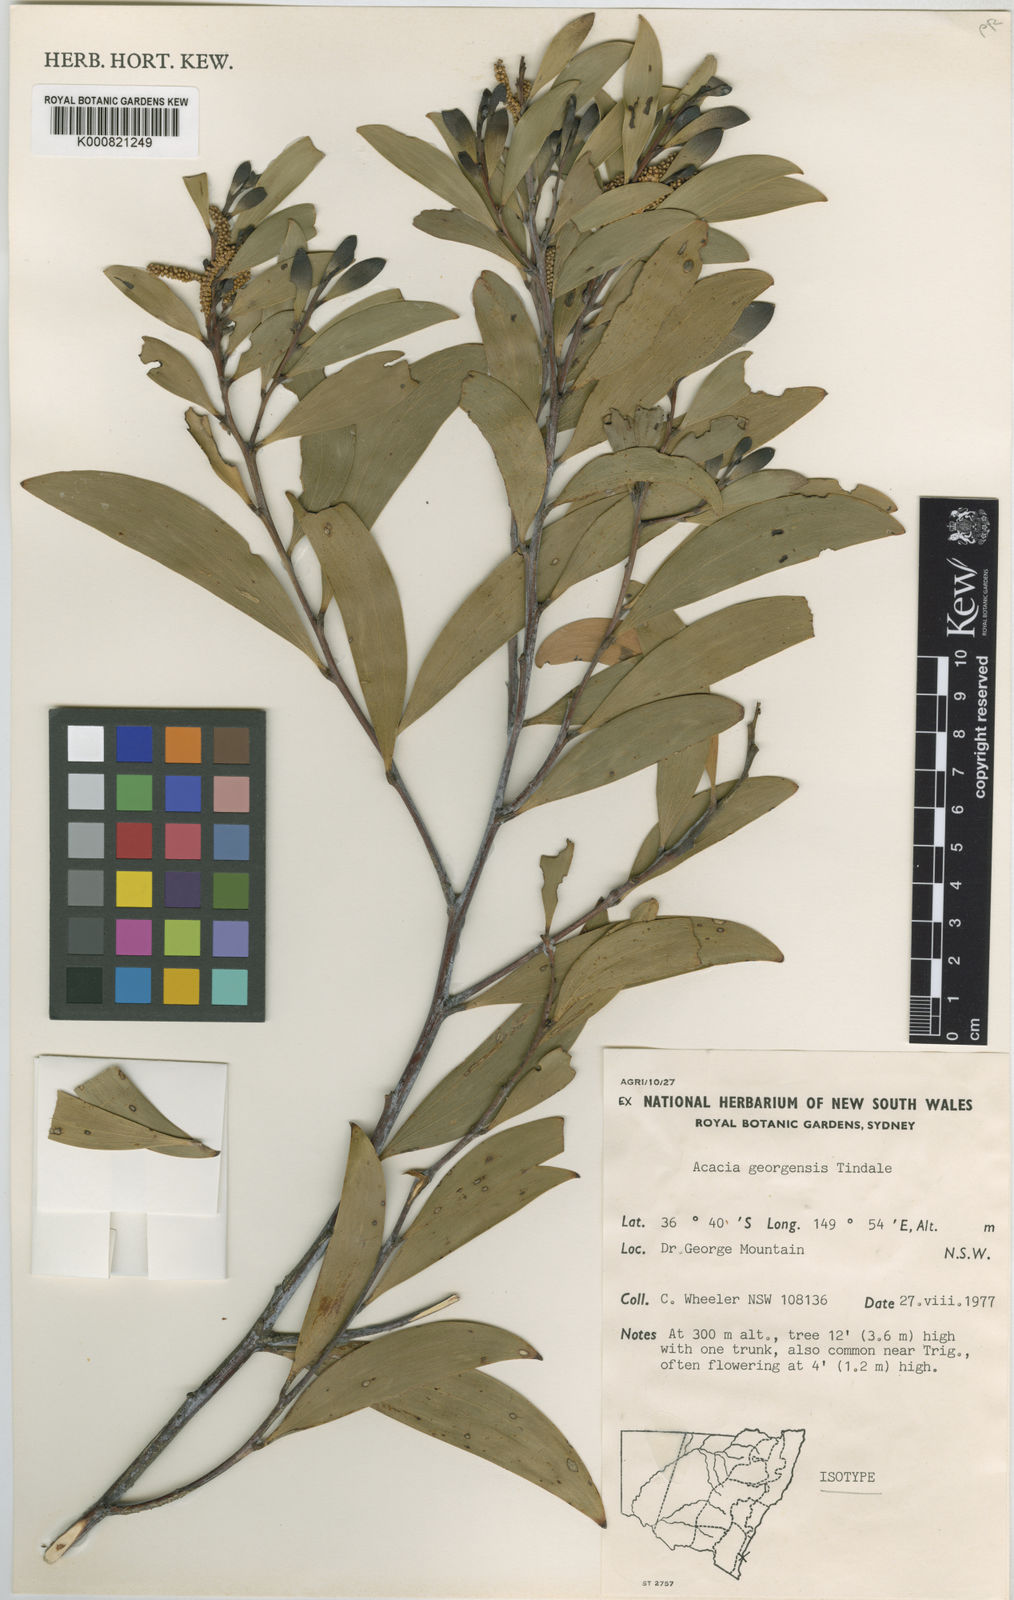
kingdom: Plantae
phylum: Tracheophyta
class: Magnoliopsida
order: Fabales
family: Fabaceae
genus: Acacia
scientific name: Acacia georgensis
